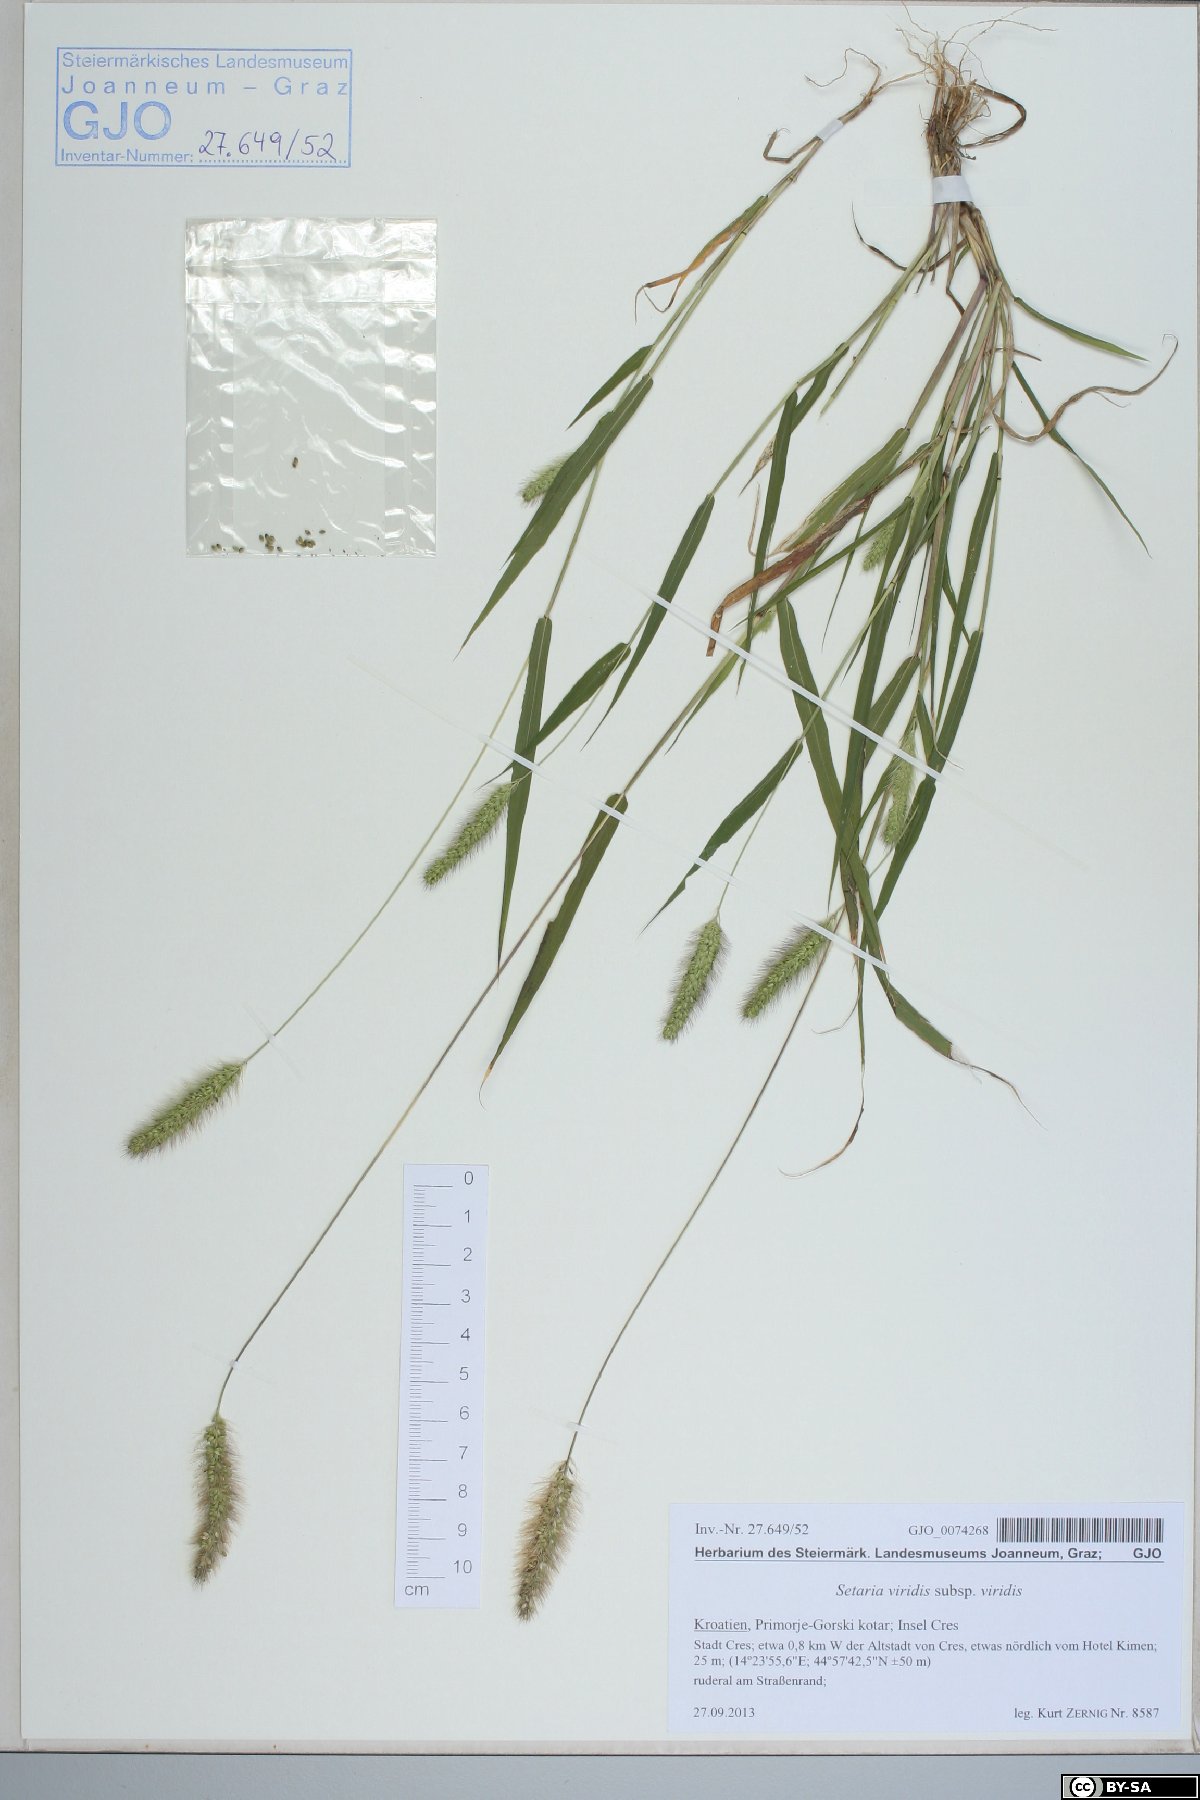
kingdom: Plantae
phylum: Tracheophyta
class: Liliopsida
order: Poales
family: Poaceae
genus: Setaria
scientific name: Setaria viridis
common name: Green bristlegrass
